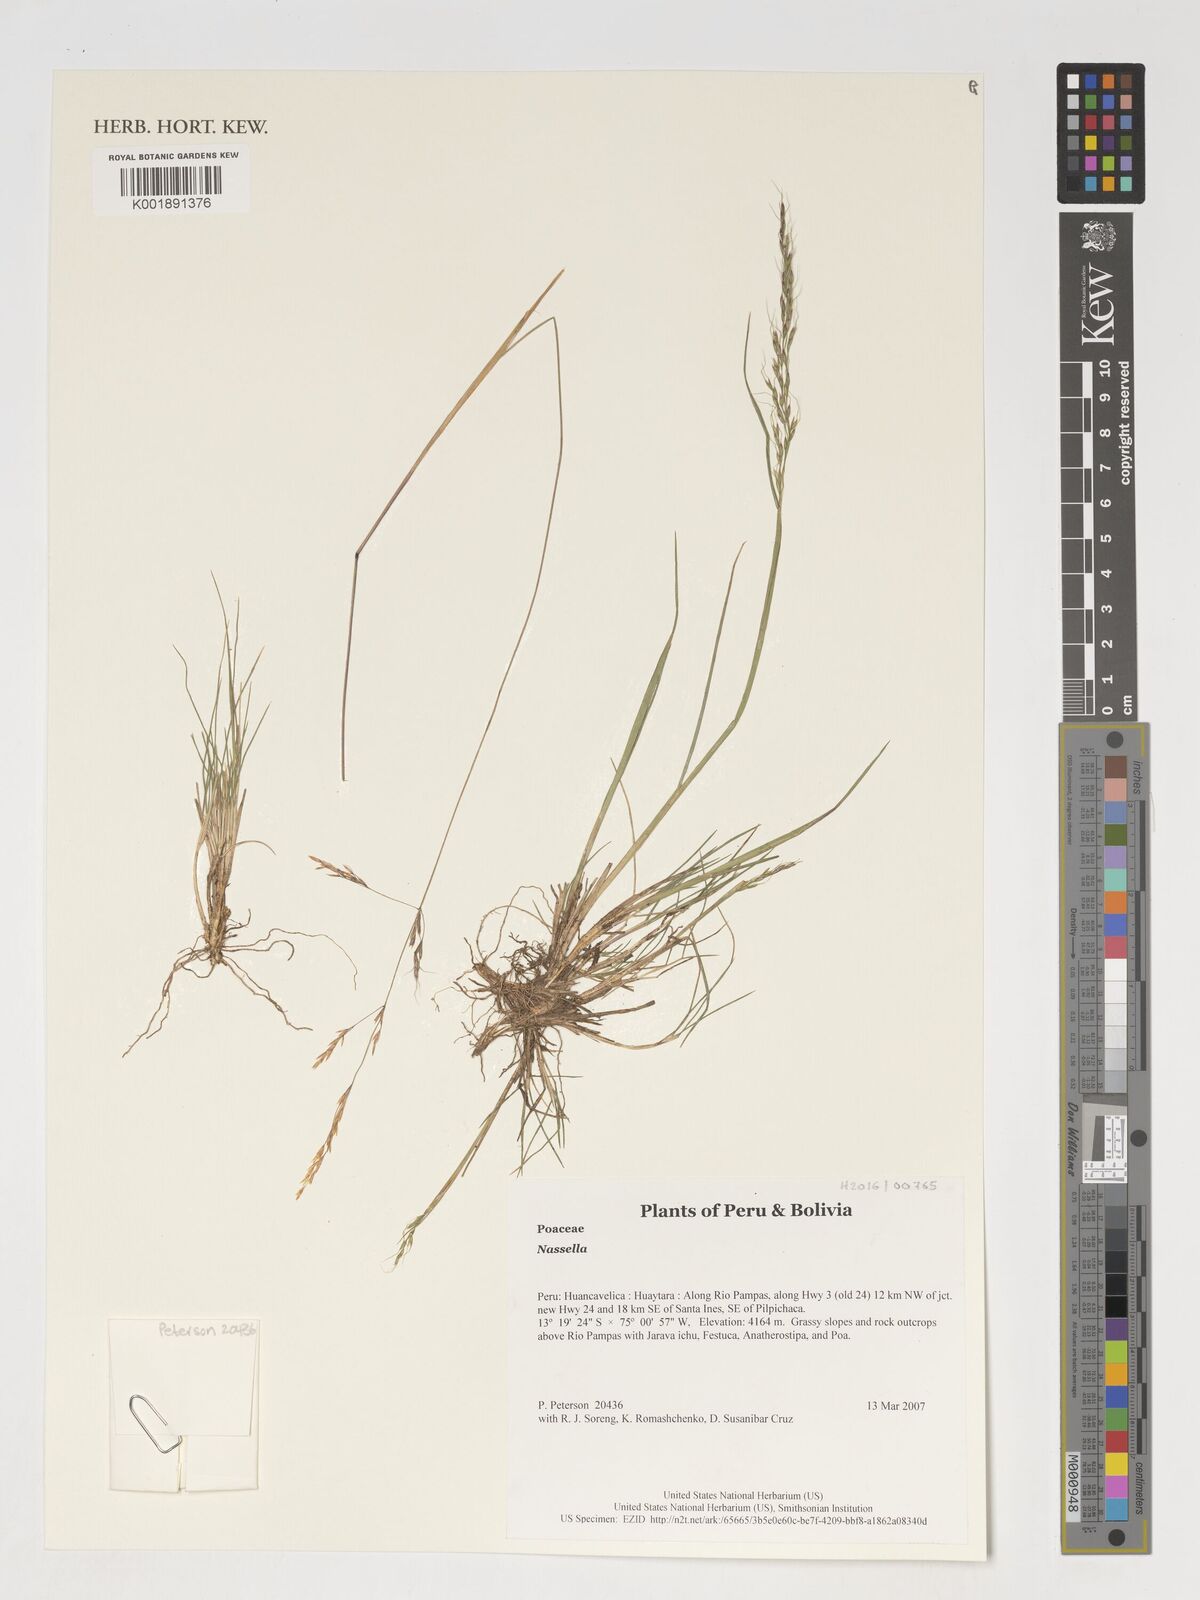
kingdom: Plantae
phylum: Tracheophyta
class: Liliopsida
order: Poales
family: Poaceae
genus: Nassella
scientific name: Nassella
